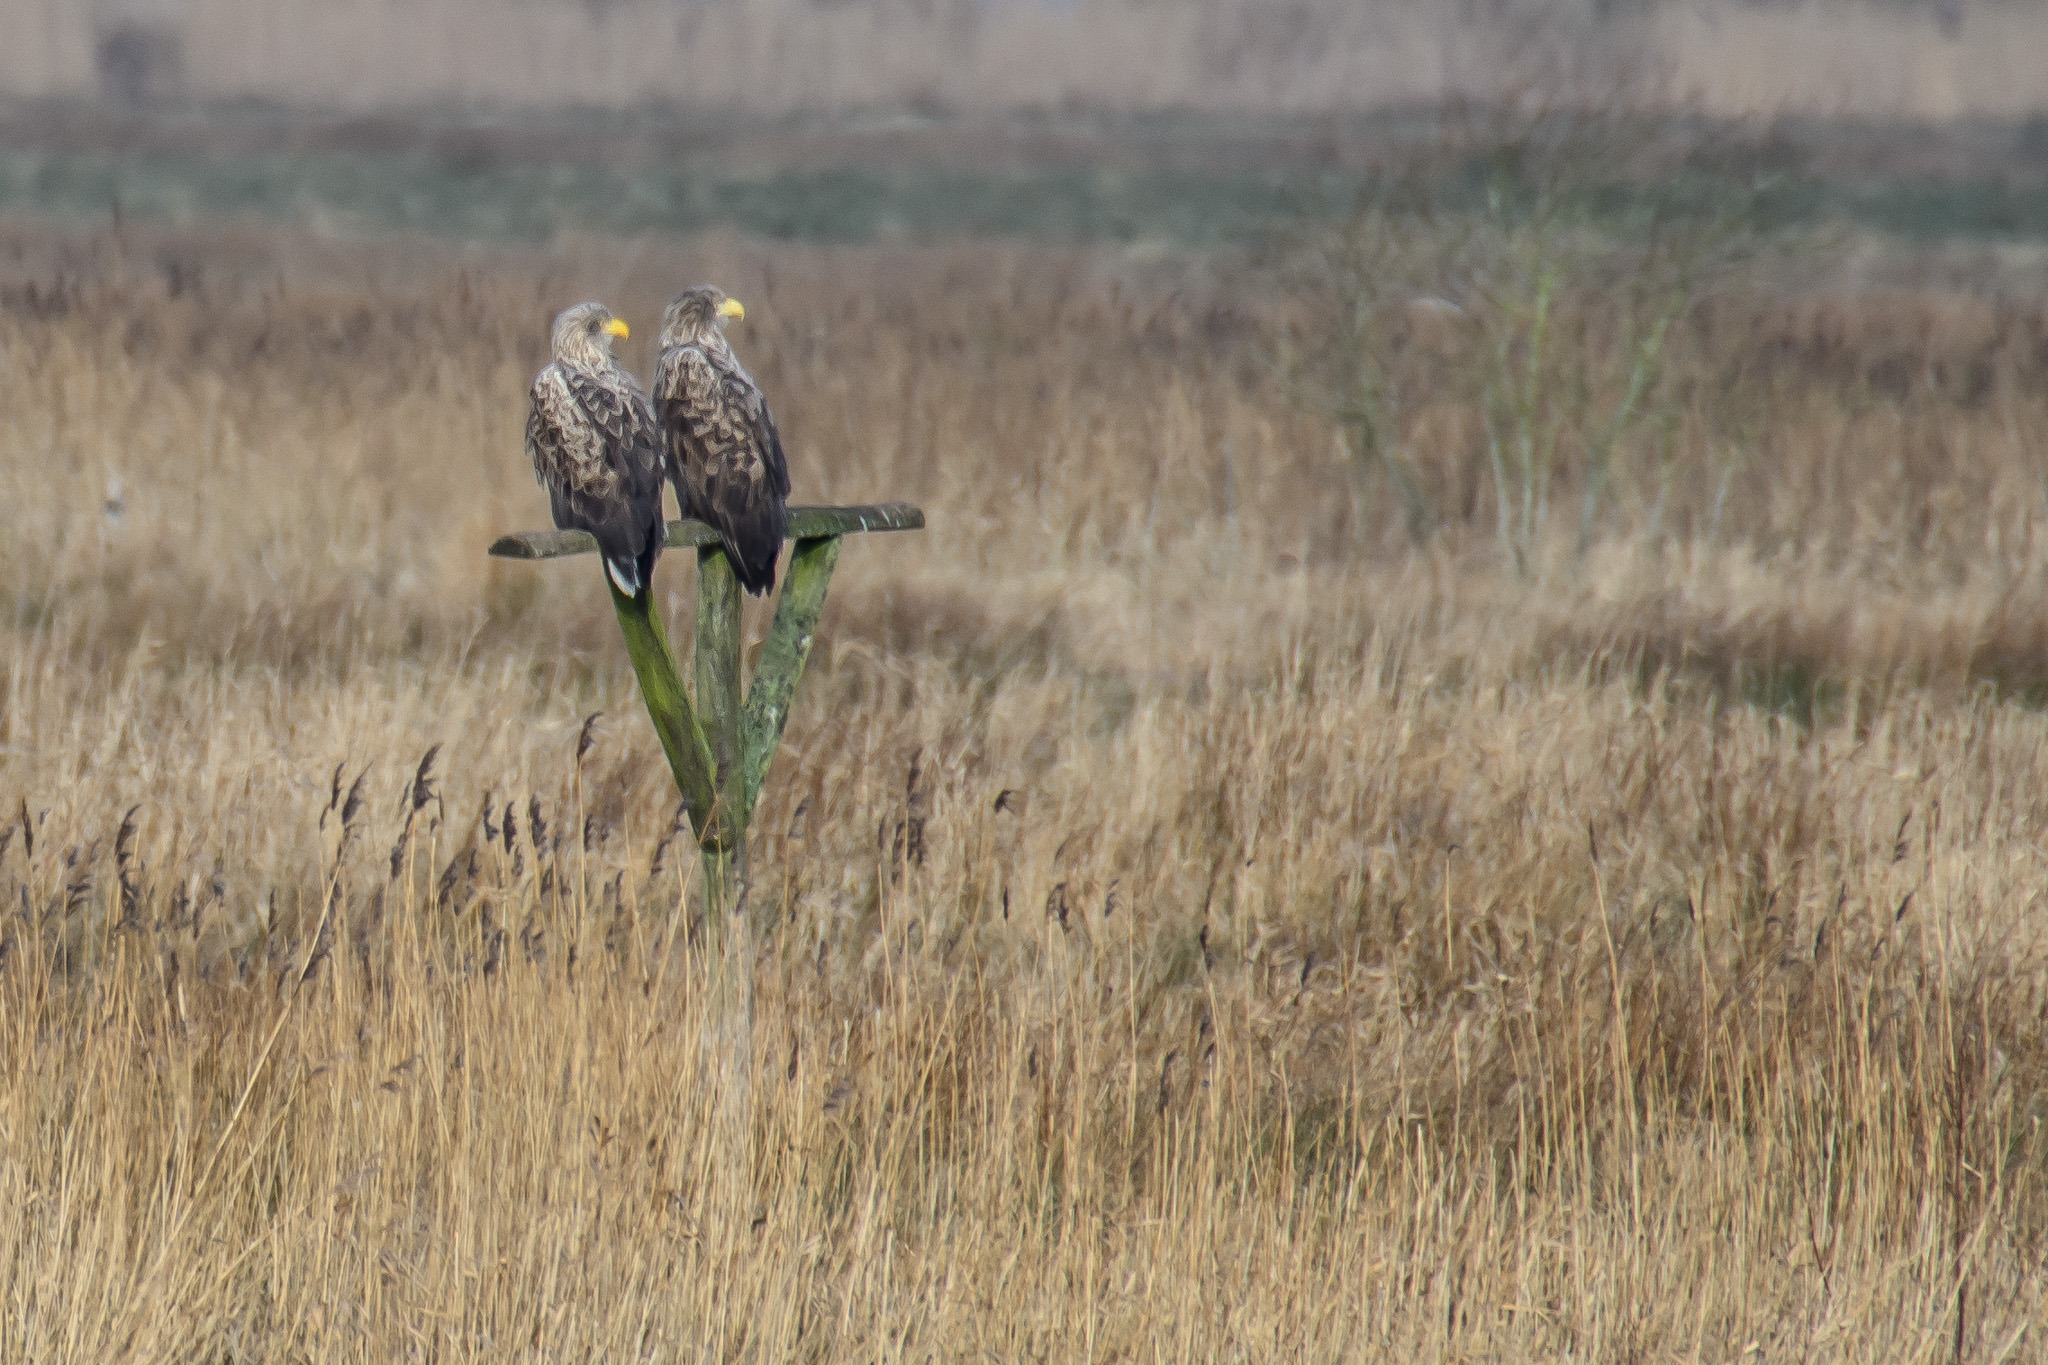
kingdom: Animalia
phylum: Chordata
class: Aves
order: Accipitriformes
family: Accipitridae
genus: Haliaeetus
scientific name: Haliaeetus albicilla
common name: Havørn
